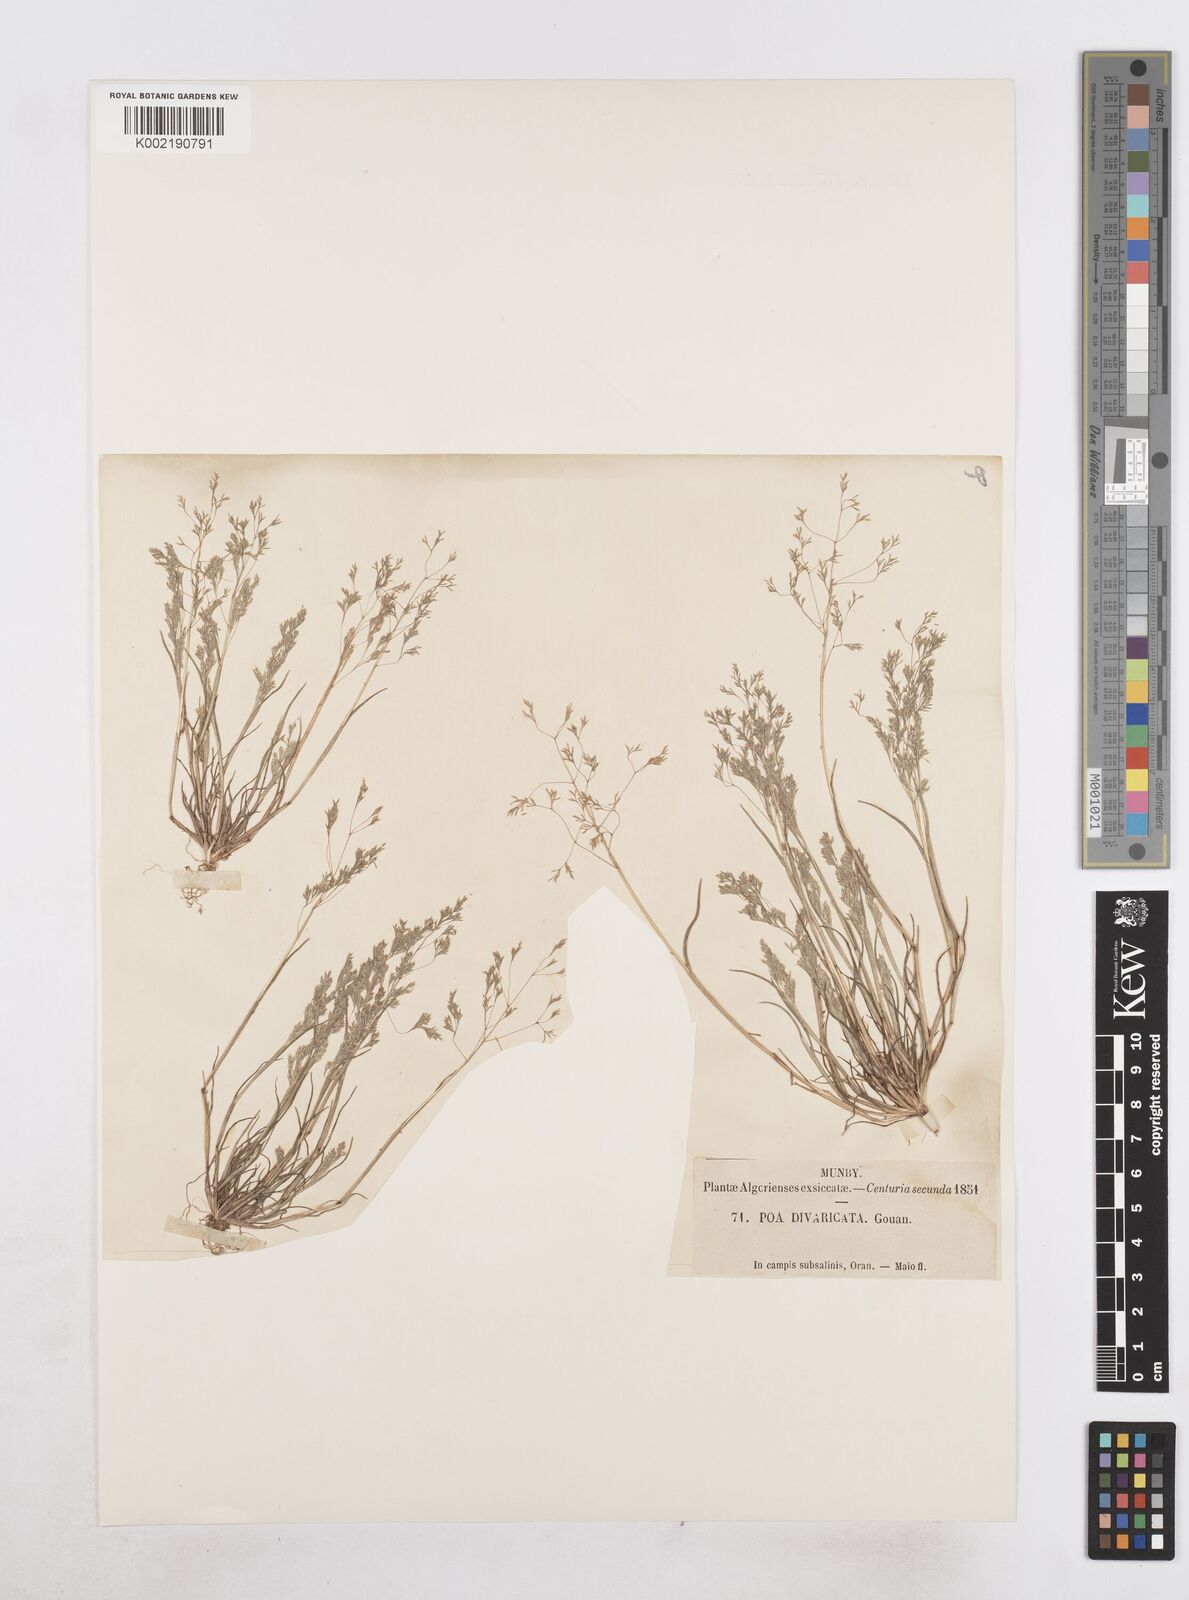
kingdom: Plantae
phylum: Tracheophyta
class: Liliopsida
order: Poales
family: Poaceae
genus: Sphenopus
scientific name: Sphenopus divaricatus
